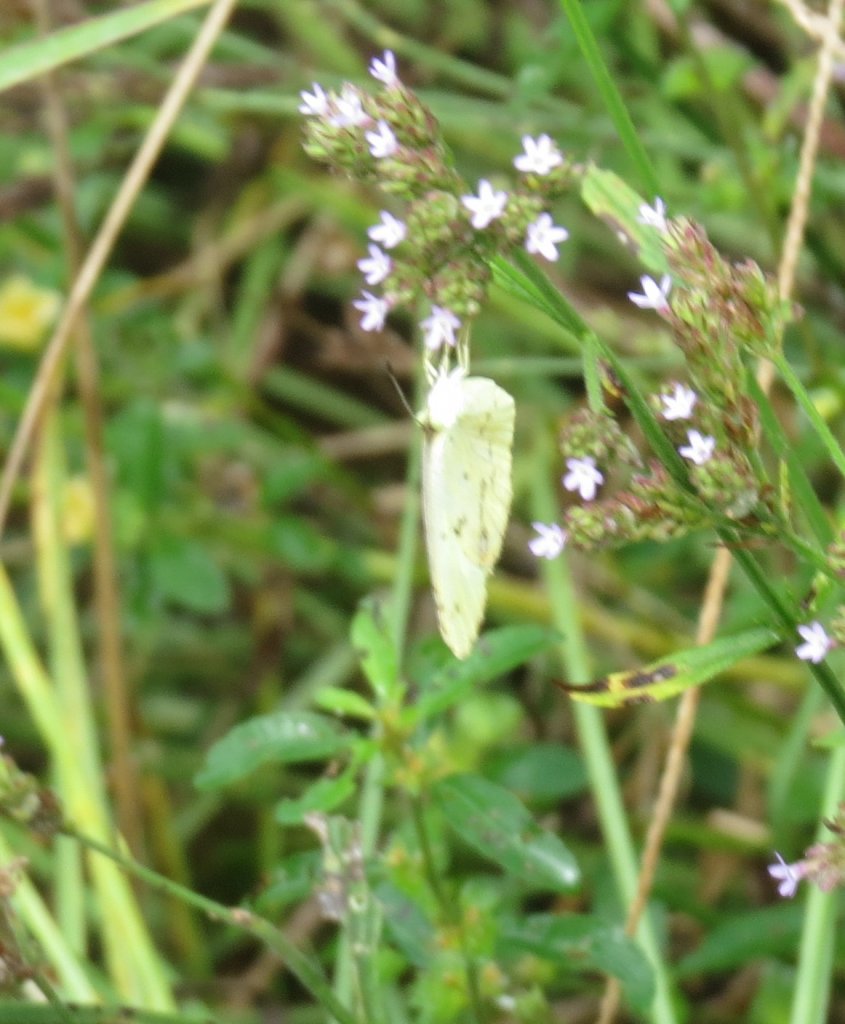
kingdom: Animalia
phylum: Arthropoda
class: Insecta
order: Lepidoptera
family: Pieridae
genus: Phoebis
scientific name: Phoebis sennae
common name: Cloudless Sulphur
